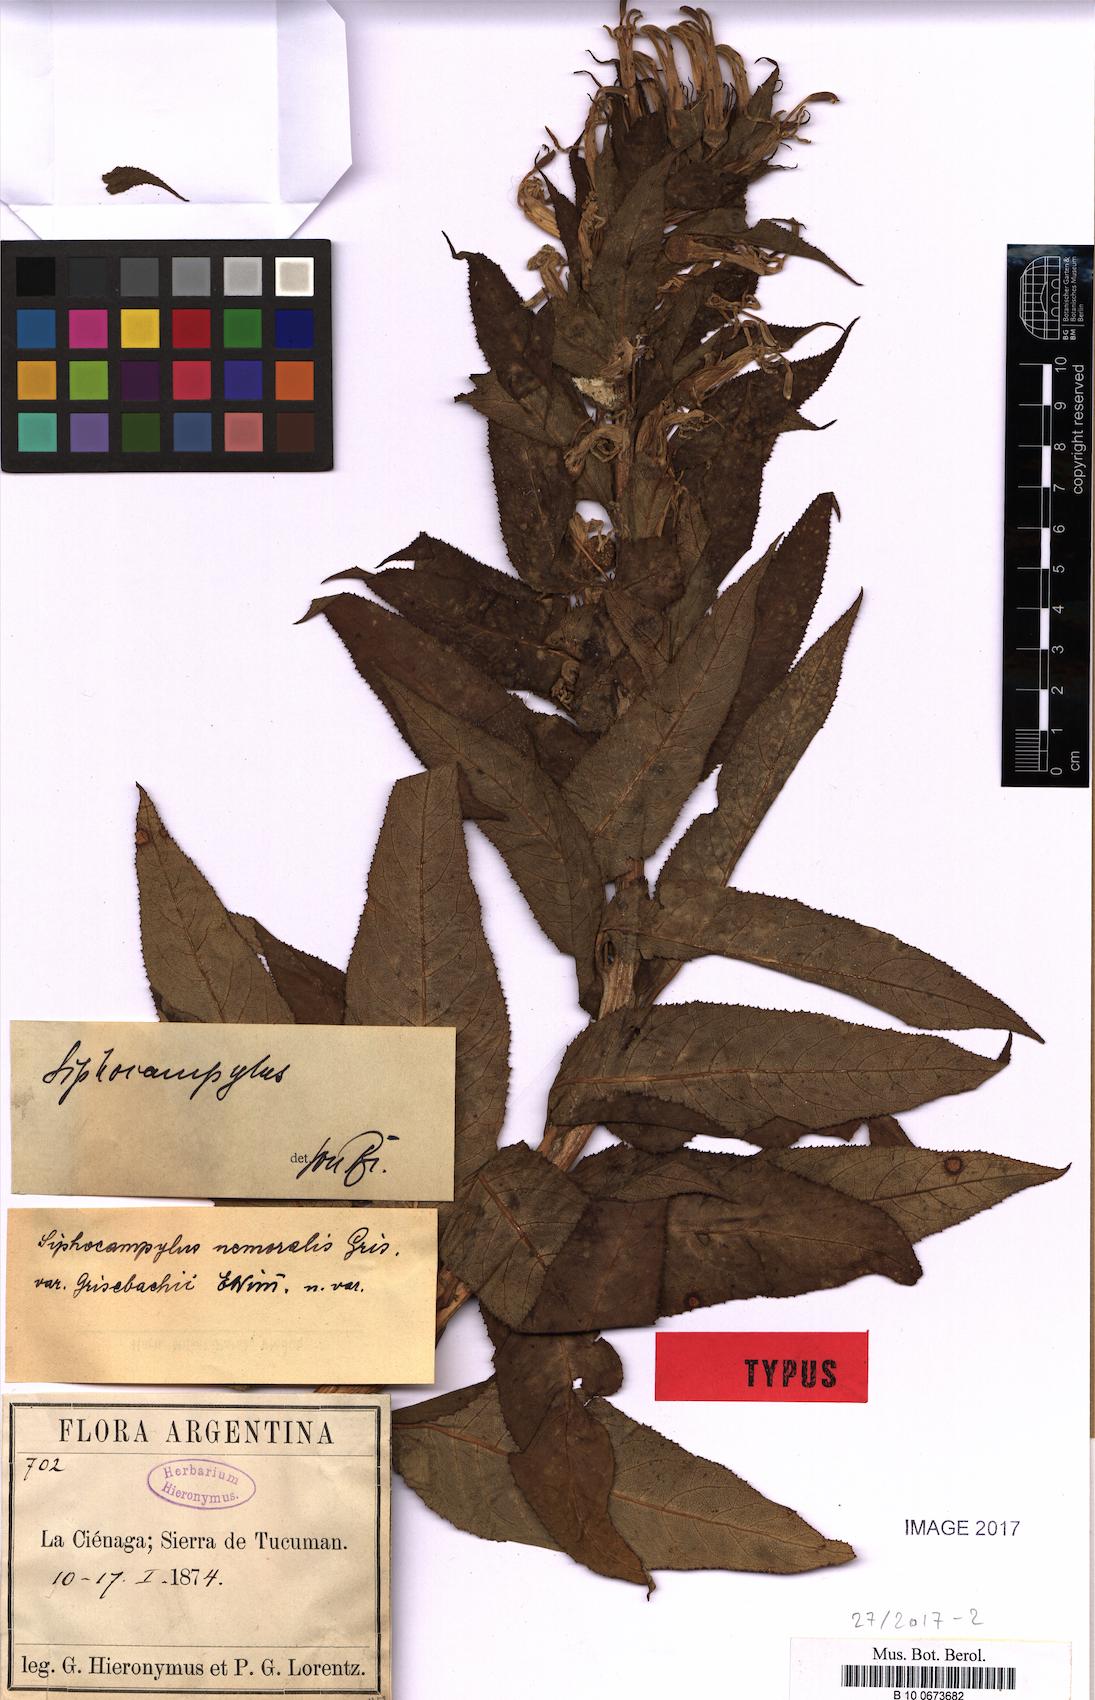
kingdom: Plantae
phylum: Tracheophyta
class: Magnoliopsida
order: Asterales
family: Campanulaceae
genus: Siphocampylus
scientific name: Siphocampylus nemoralis
